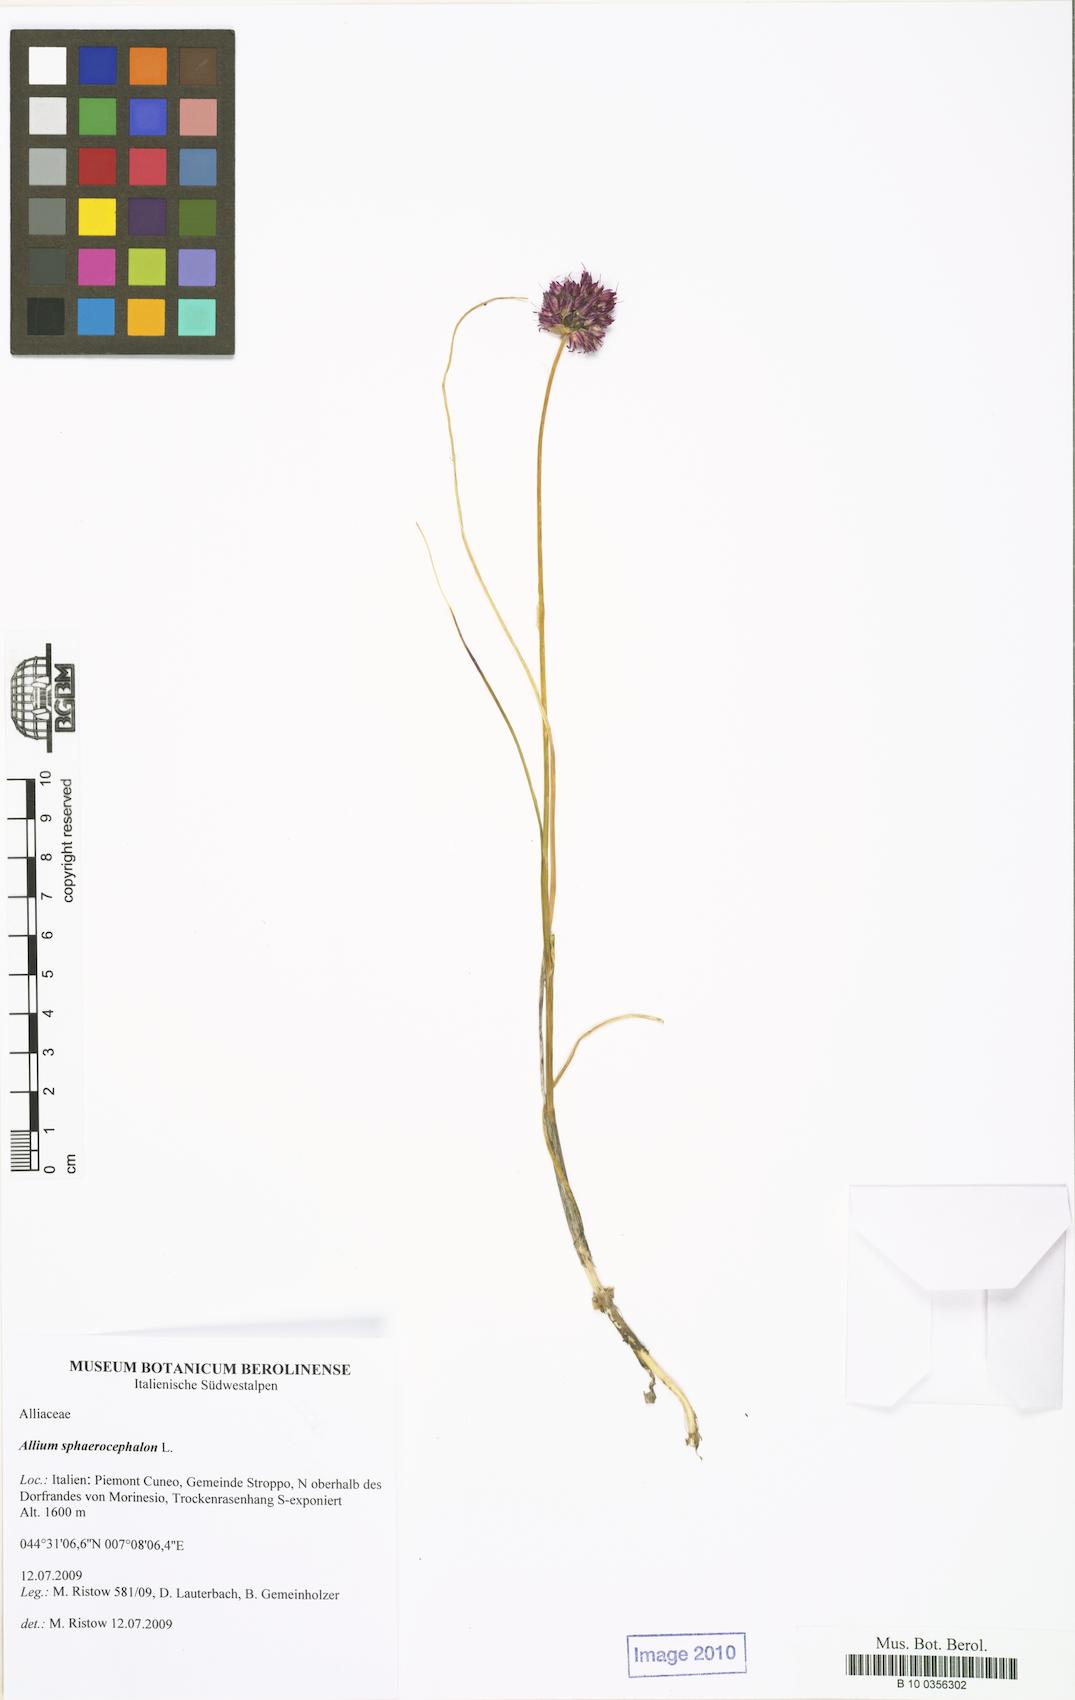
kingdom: Plantae
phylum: Tracheophyta
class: Liliopsida
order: Asparagales
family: Amaryllidaceae
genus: Allium
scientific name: Allium sphaerocephalon
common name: Round-headed leek
